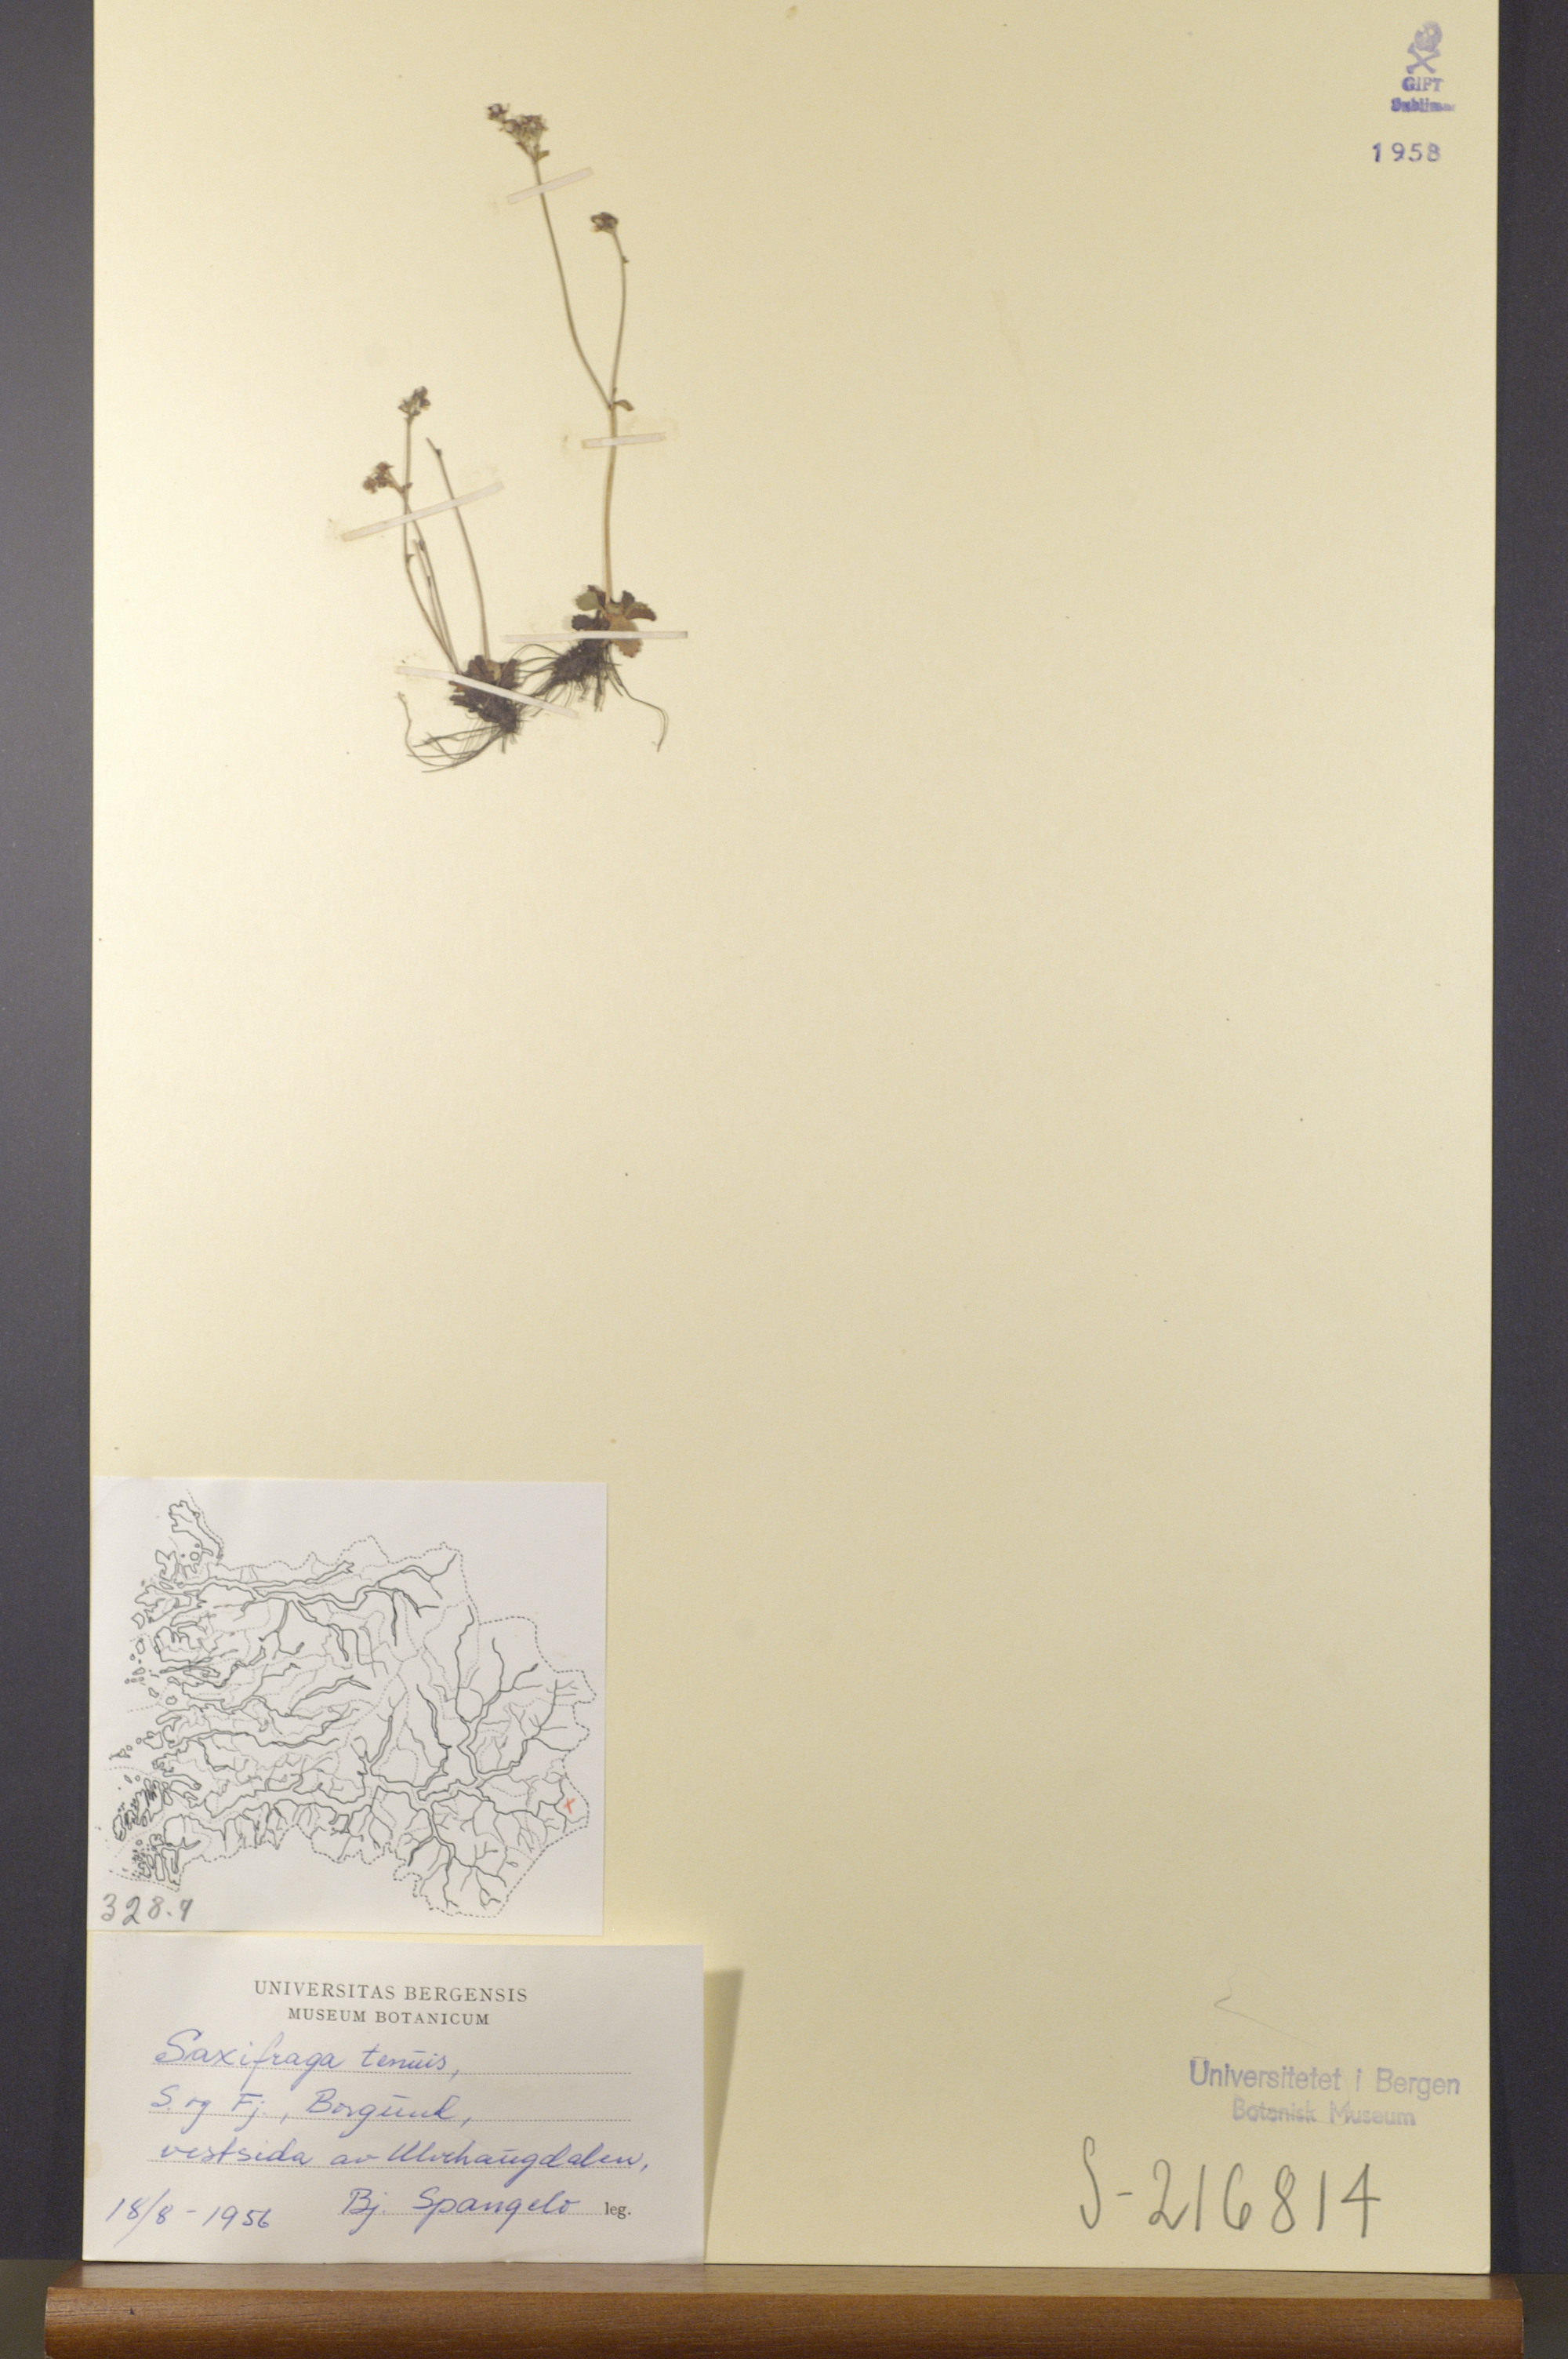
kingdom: Plantae
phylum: Tracheophyta
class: Magnoliopsida
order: Saxifragales
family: Saxifragaceae
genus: Micranthes
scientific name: Micranthes tenuis
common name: Ottertail pass saxifrage
